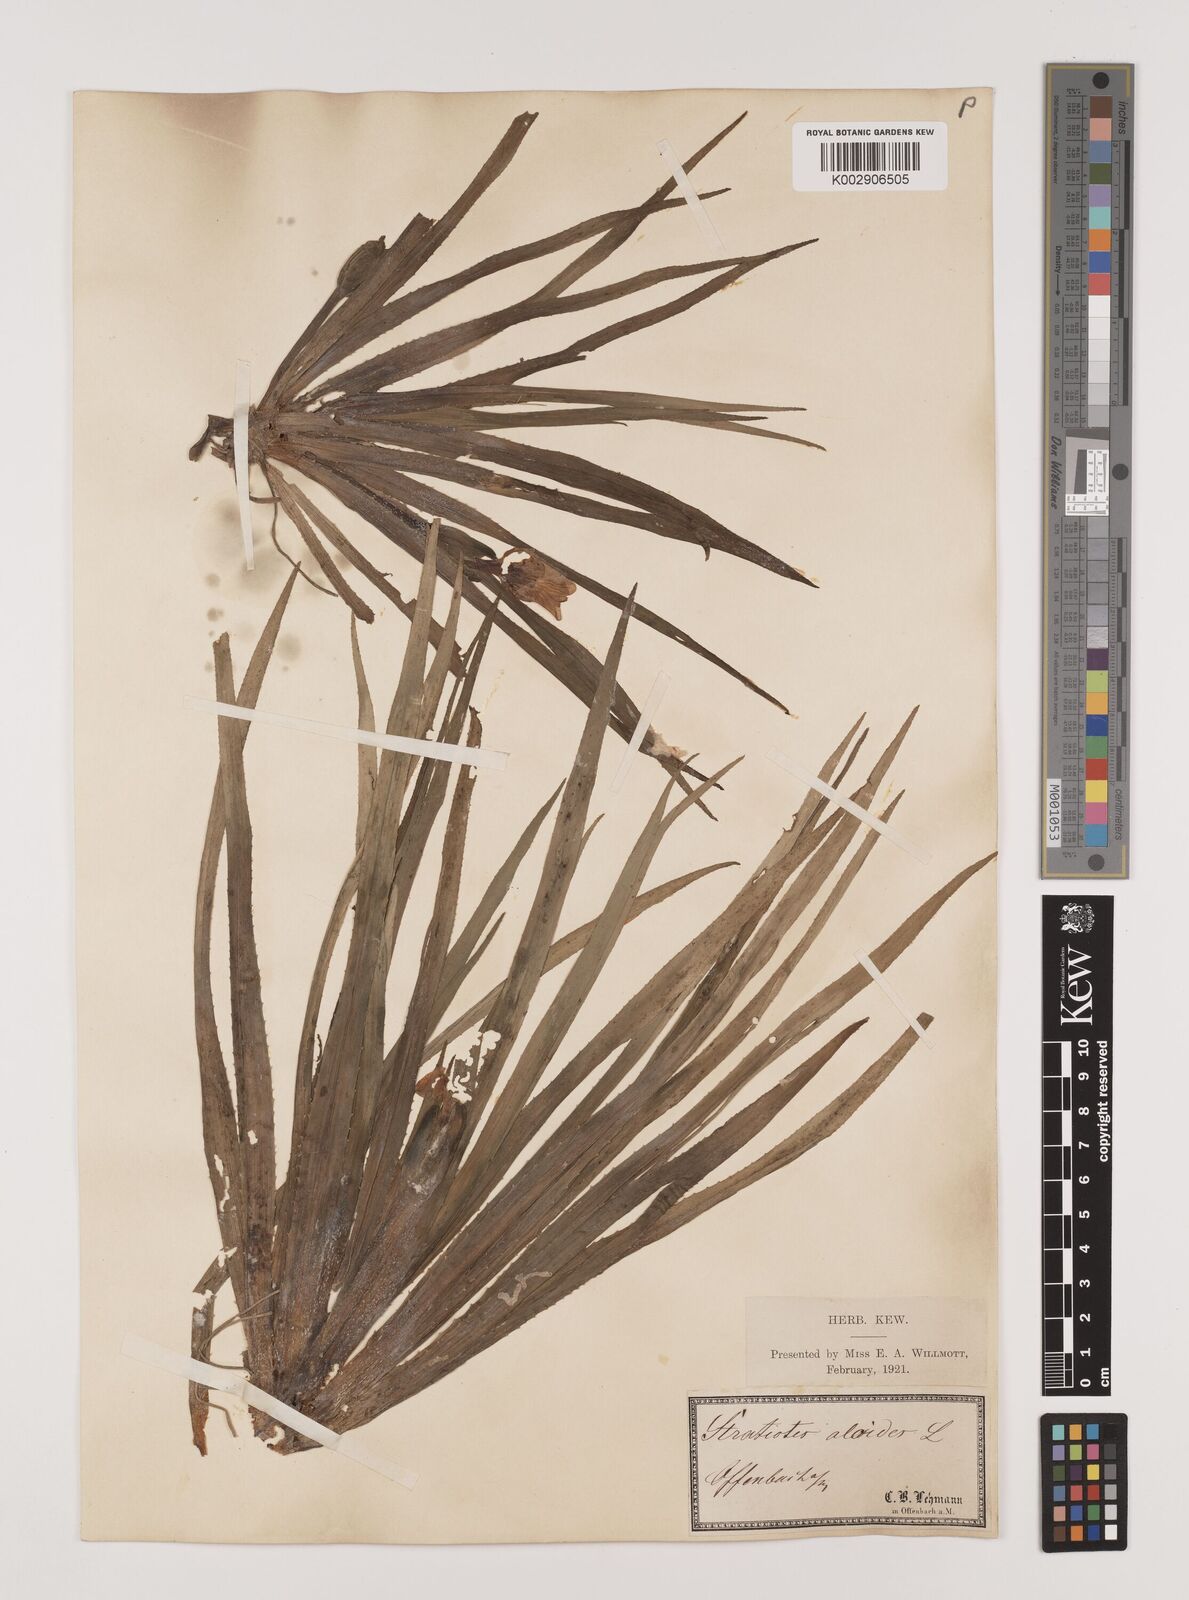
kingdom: Plantae
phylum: Tracheophyta
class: Liliopsida
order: Alismatales
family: Hydrocharitaceae
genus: Stratiotes
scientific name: Stratiotes aloides
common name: Water-soldier
